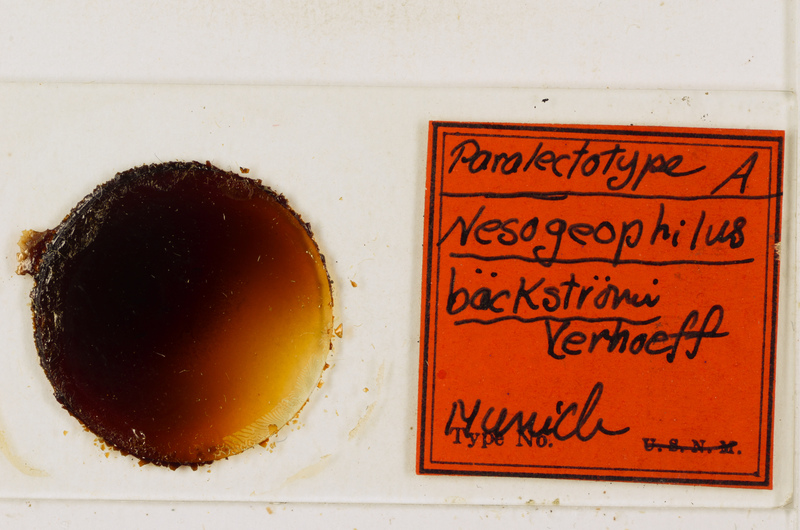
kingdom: Animalia
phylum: Arthropoda
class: Chilopoda
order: Geophilomorpha
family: Geophilidae
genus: Tuoba
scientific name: Tuoba
